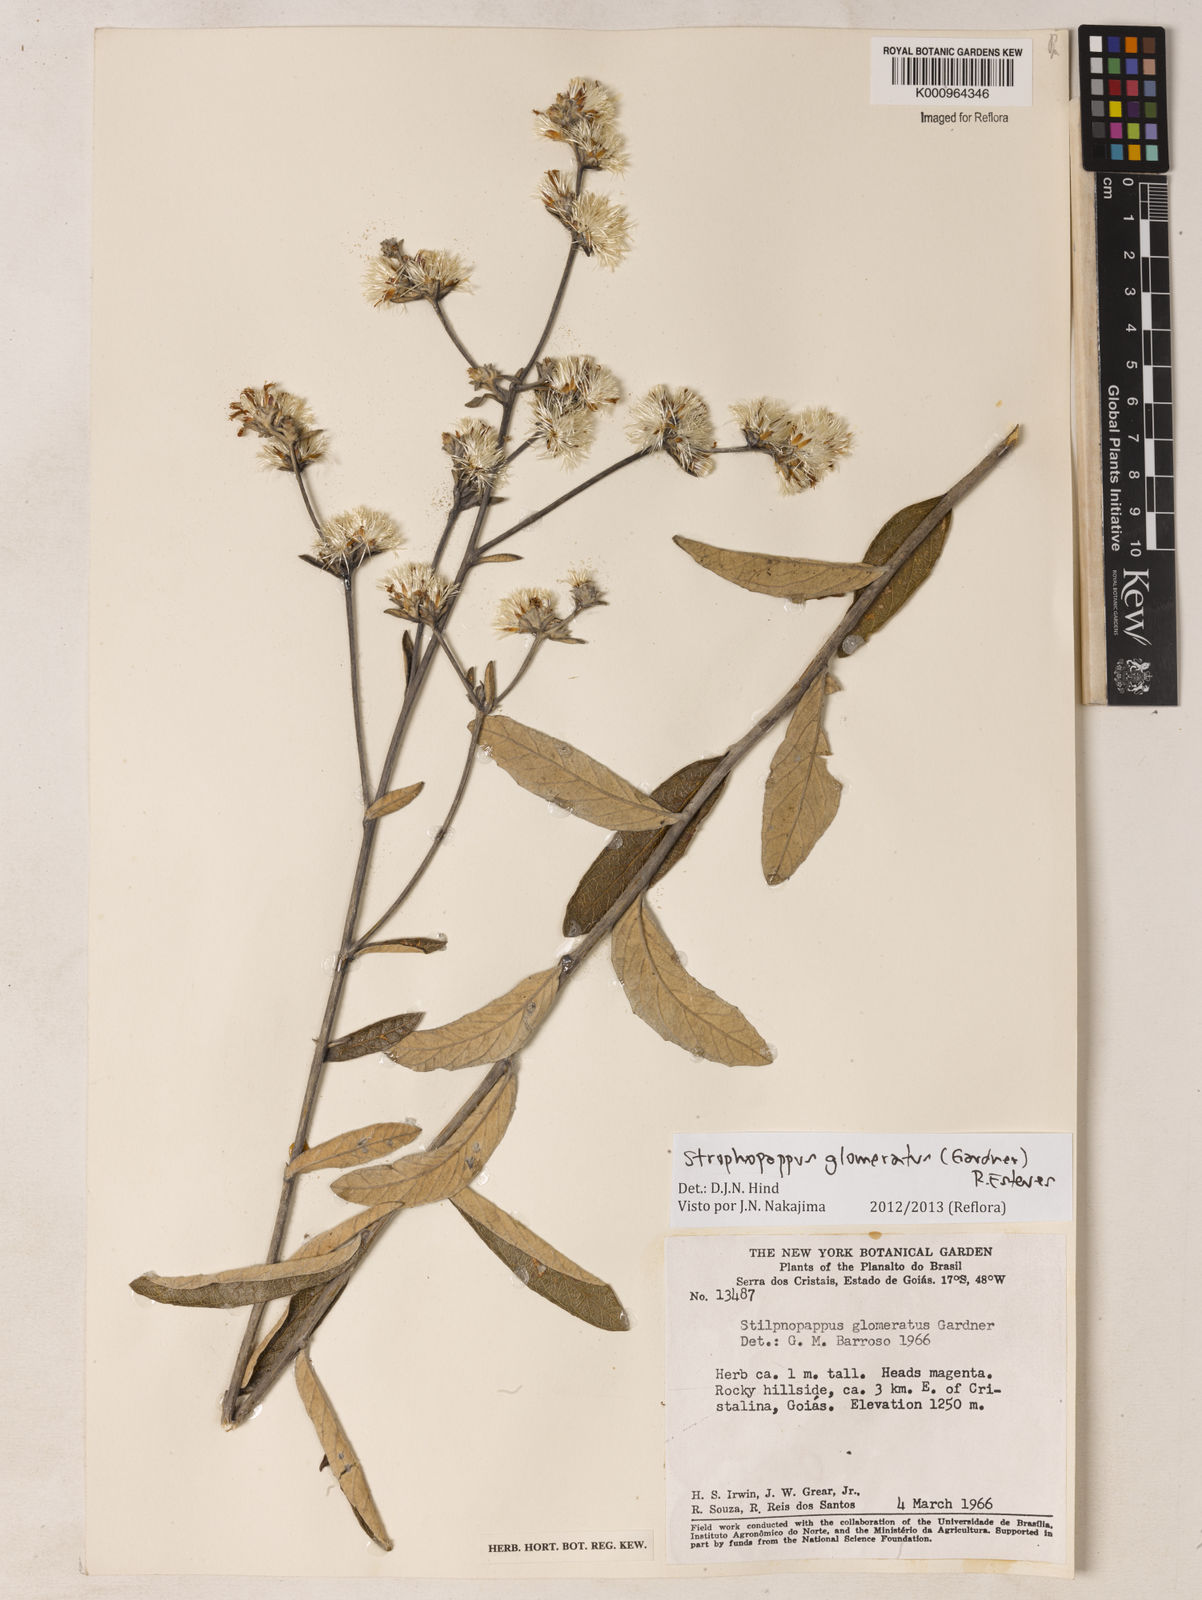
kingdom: Plantae
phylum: Tracheophyta
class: Magnoliopsida
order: Asterales
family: Asteraceae
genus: Stilpnopappus
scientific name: Stilpnopappus glomeratus
